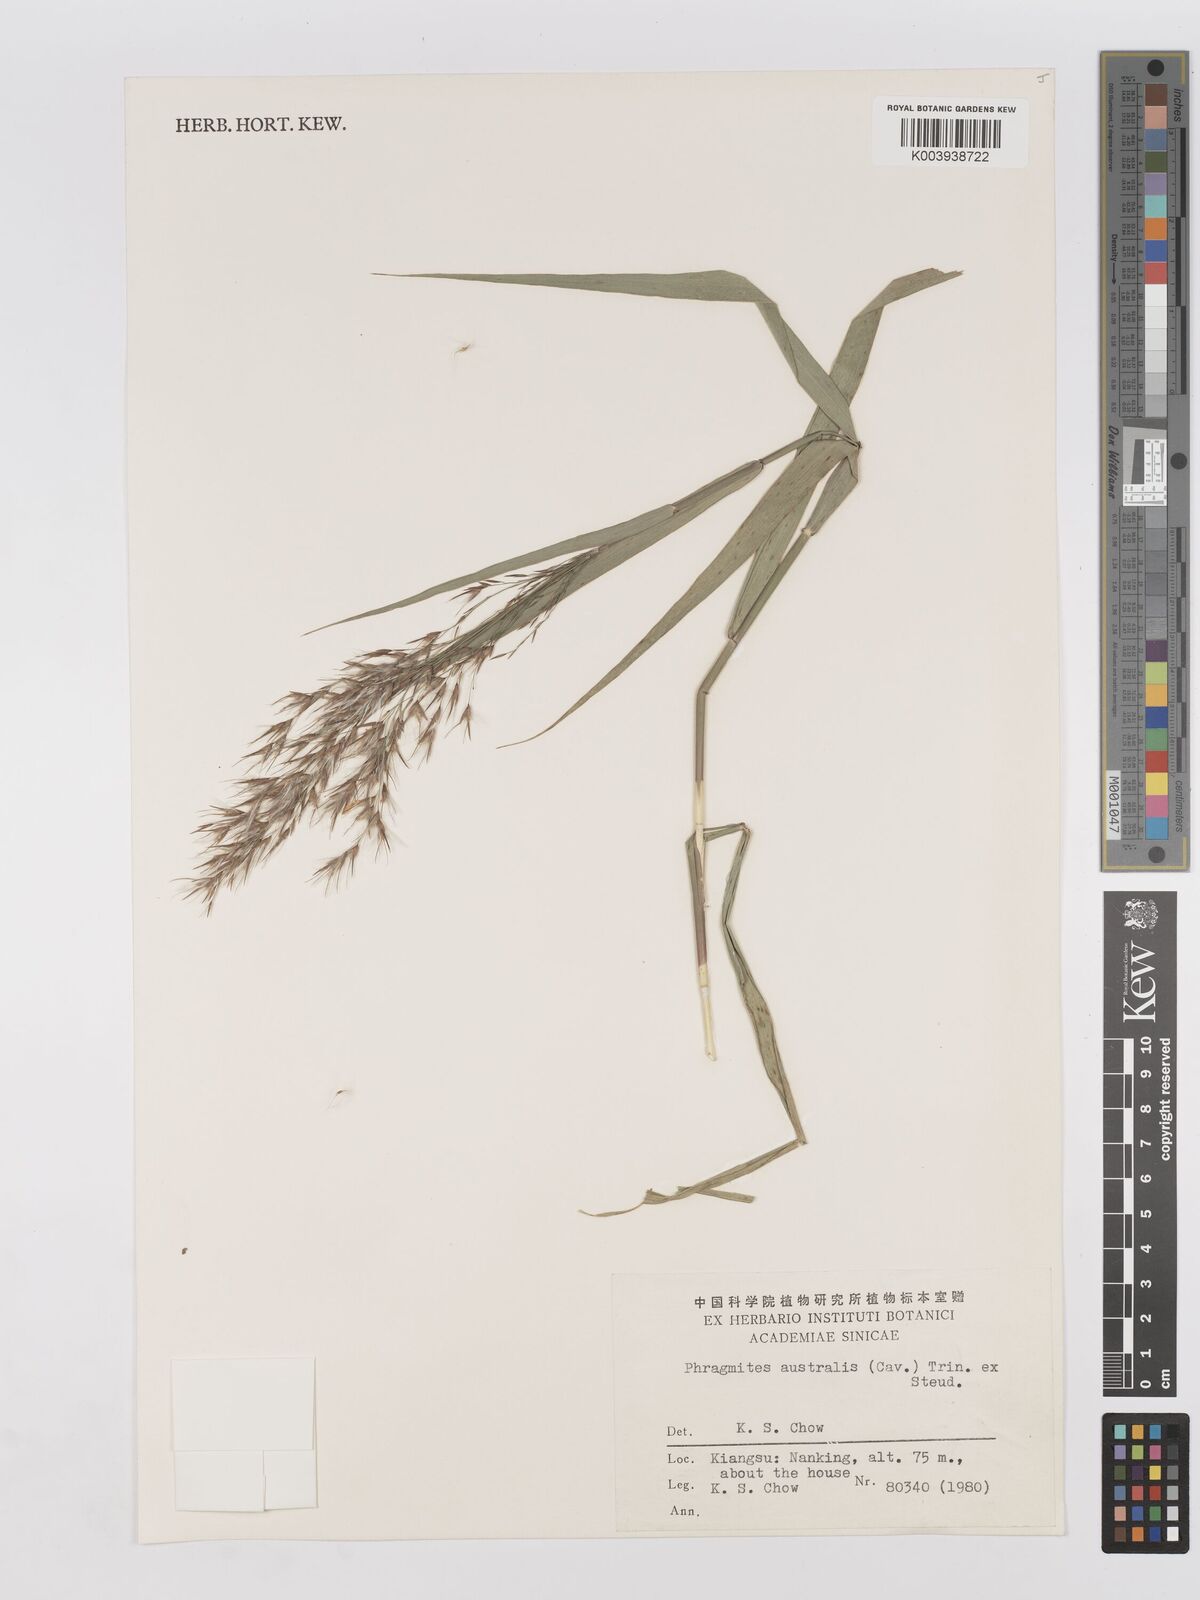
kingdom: Plantae
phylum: Tracheophyta
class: Liliopsida
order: Poales
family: Poaceae
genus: Phragmites
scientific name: Phragmites australis
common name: Common reed
